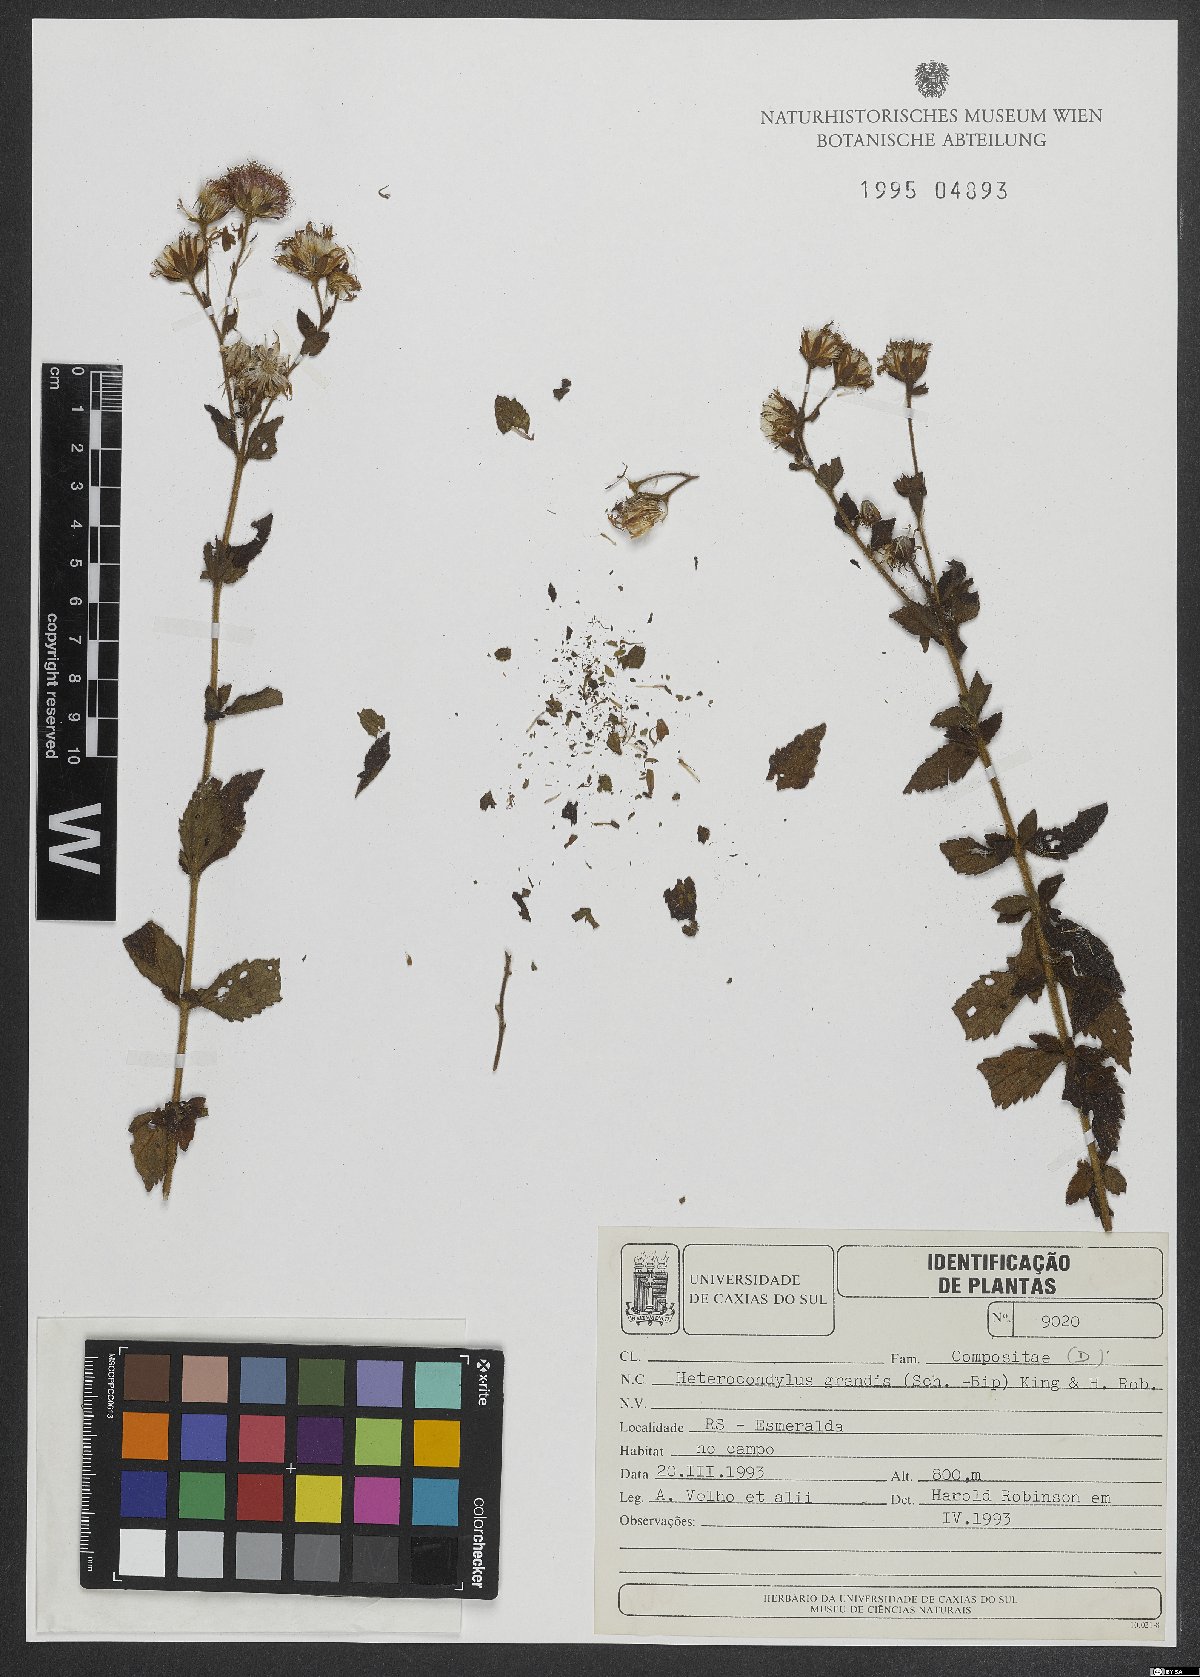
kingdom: Plantae
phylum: Tracheophyta
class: Magnoliopsida
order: Asterales
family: Asteraceae
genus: Heterocondylus
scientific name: Heterocondylus grandis
